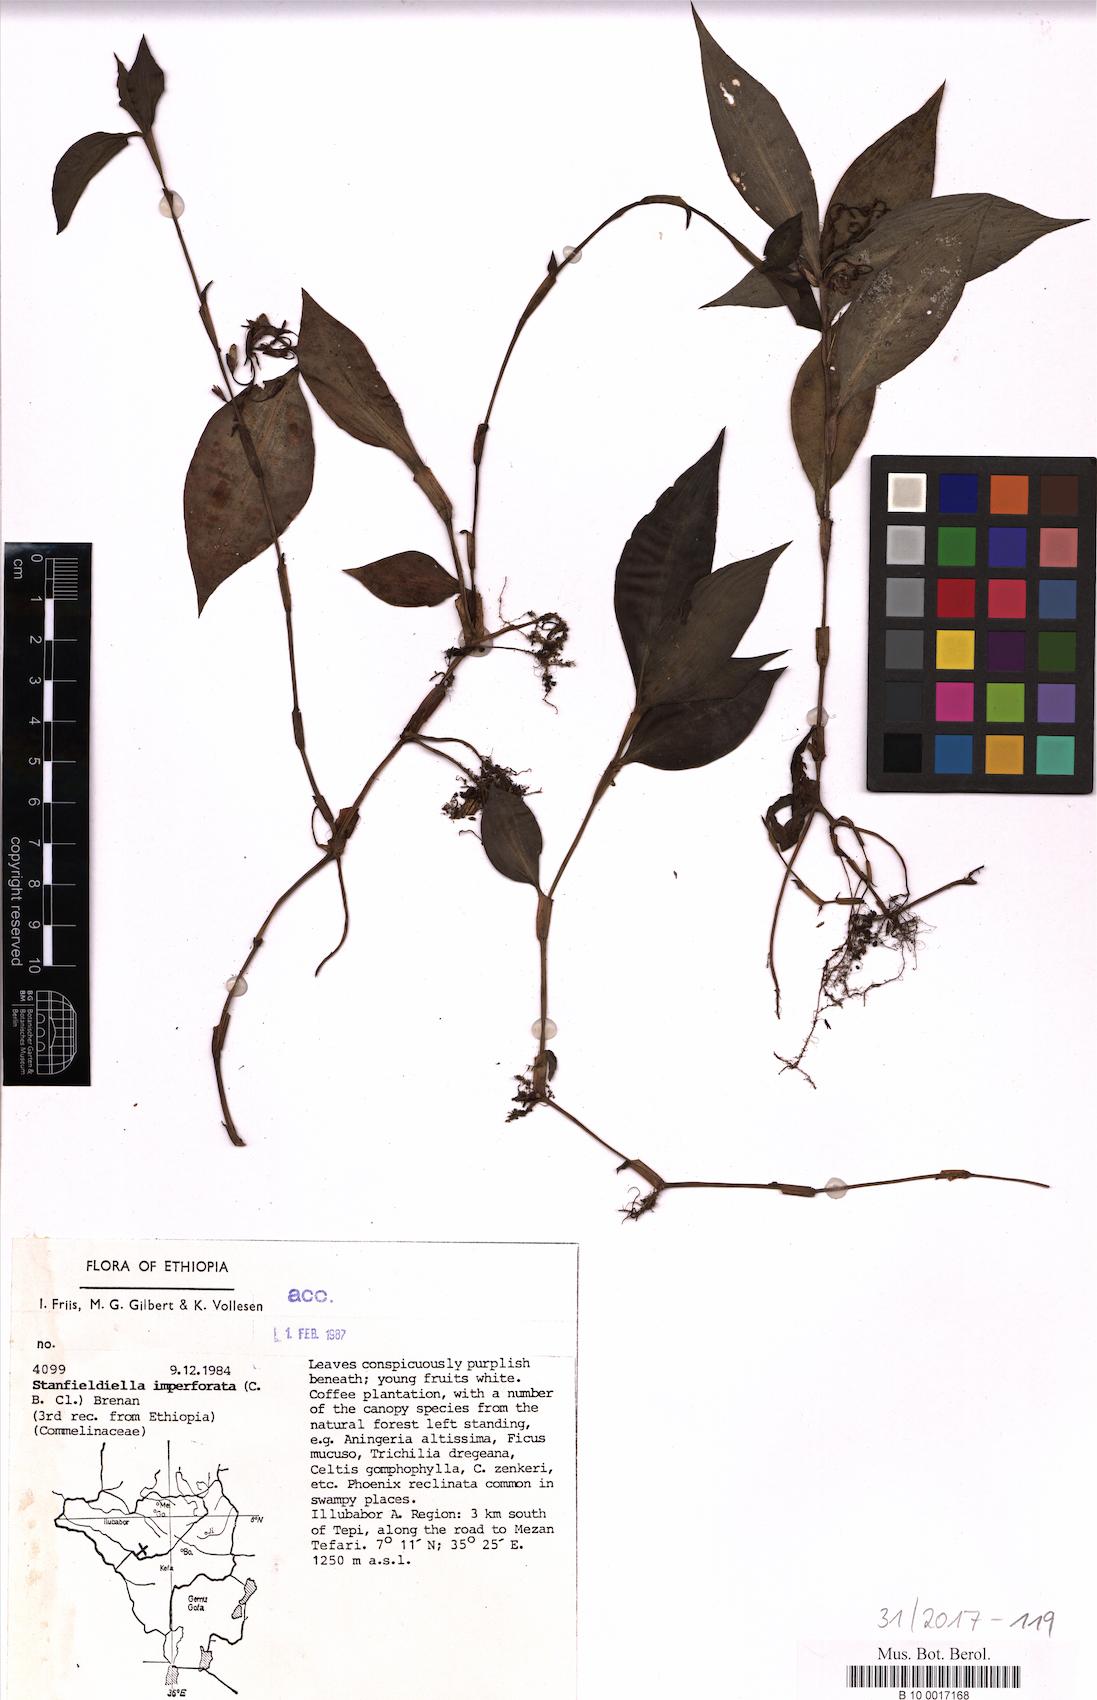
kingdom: Plantae
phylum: Tracheophyta
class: Liliopsida
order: Commelinales
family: Commelinaceae
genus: Stanfieldiella
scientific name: Stanfieldiella imperforata
